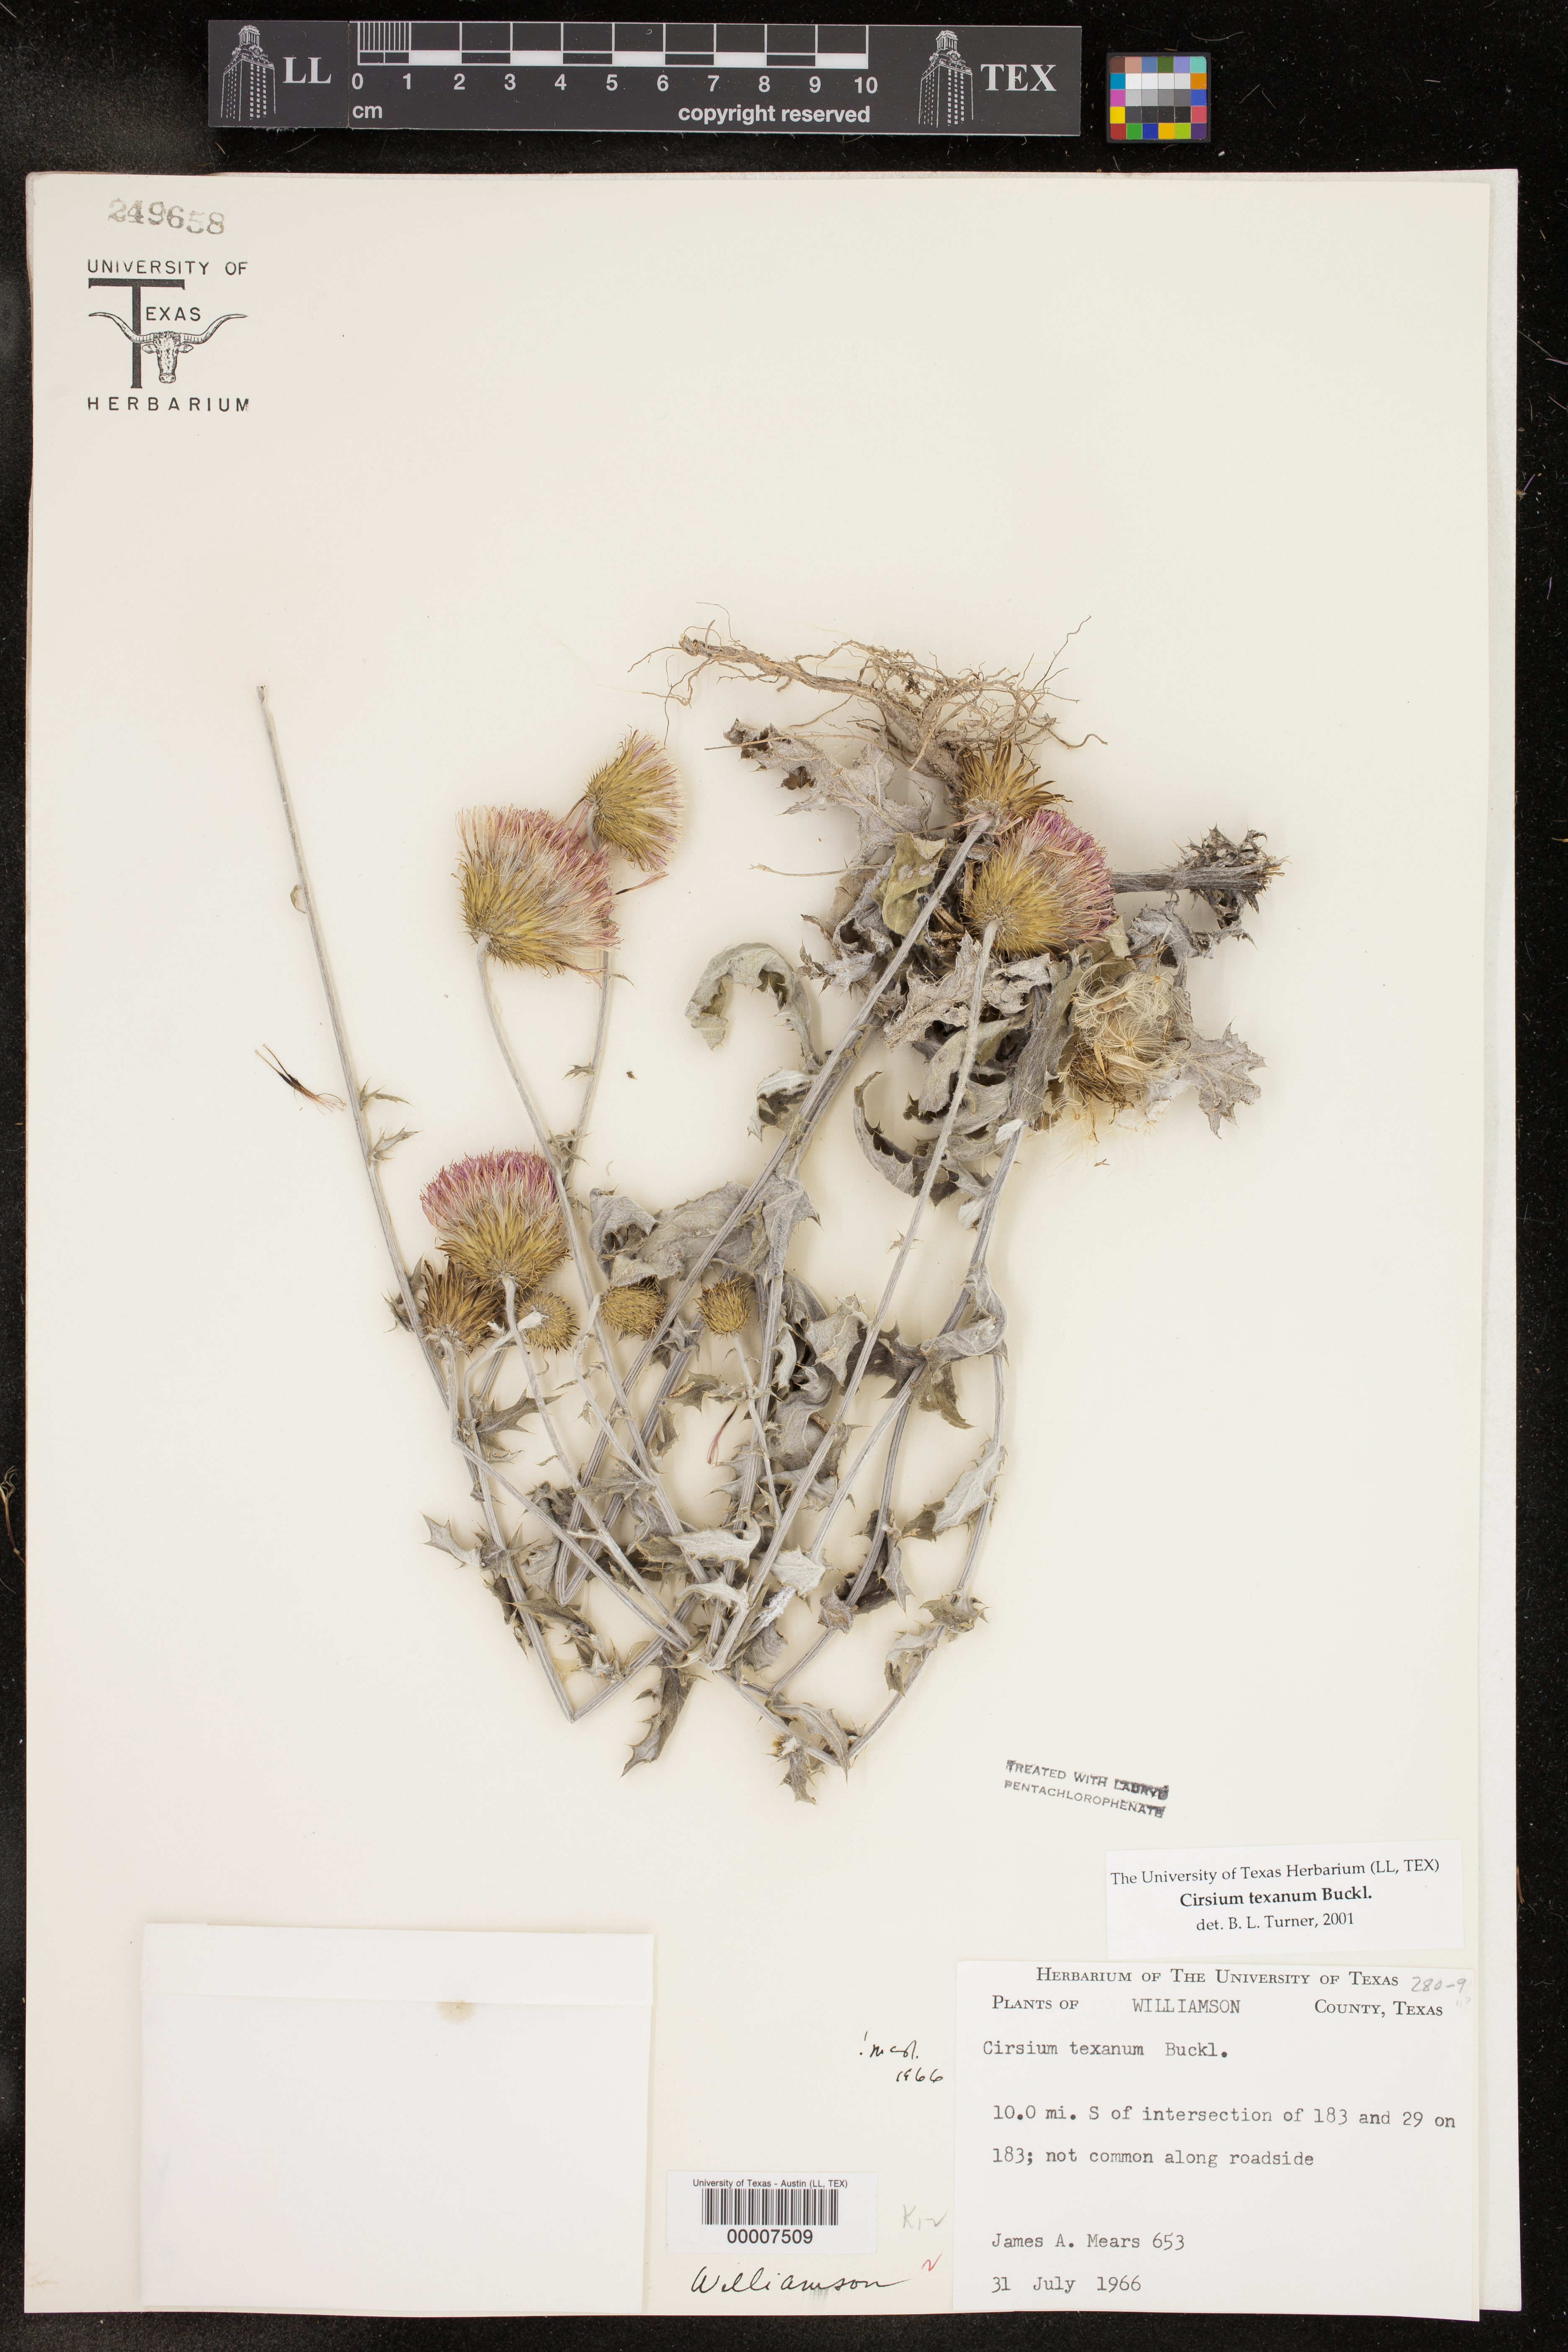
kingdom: Plantae
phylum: Tracheophyta
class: Magnoliopsida
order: Asterales
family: Asteraceae
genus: Cirsium
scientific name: Cirsium texanum
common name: Texas purple thistle
